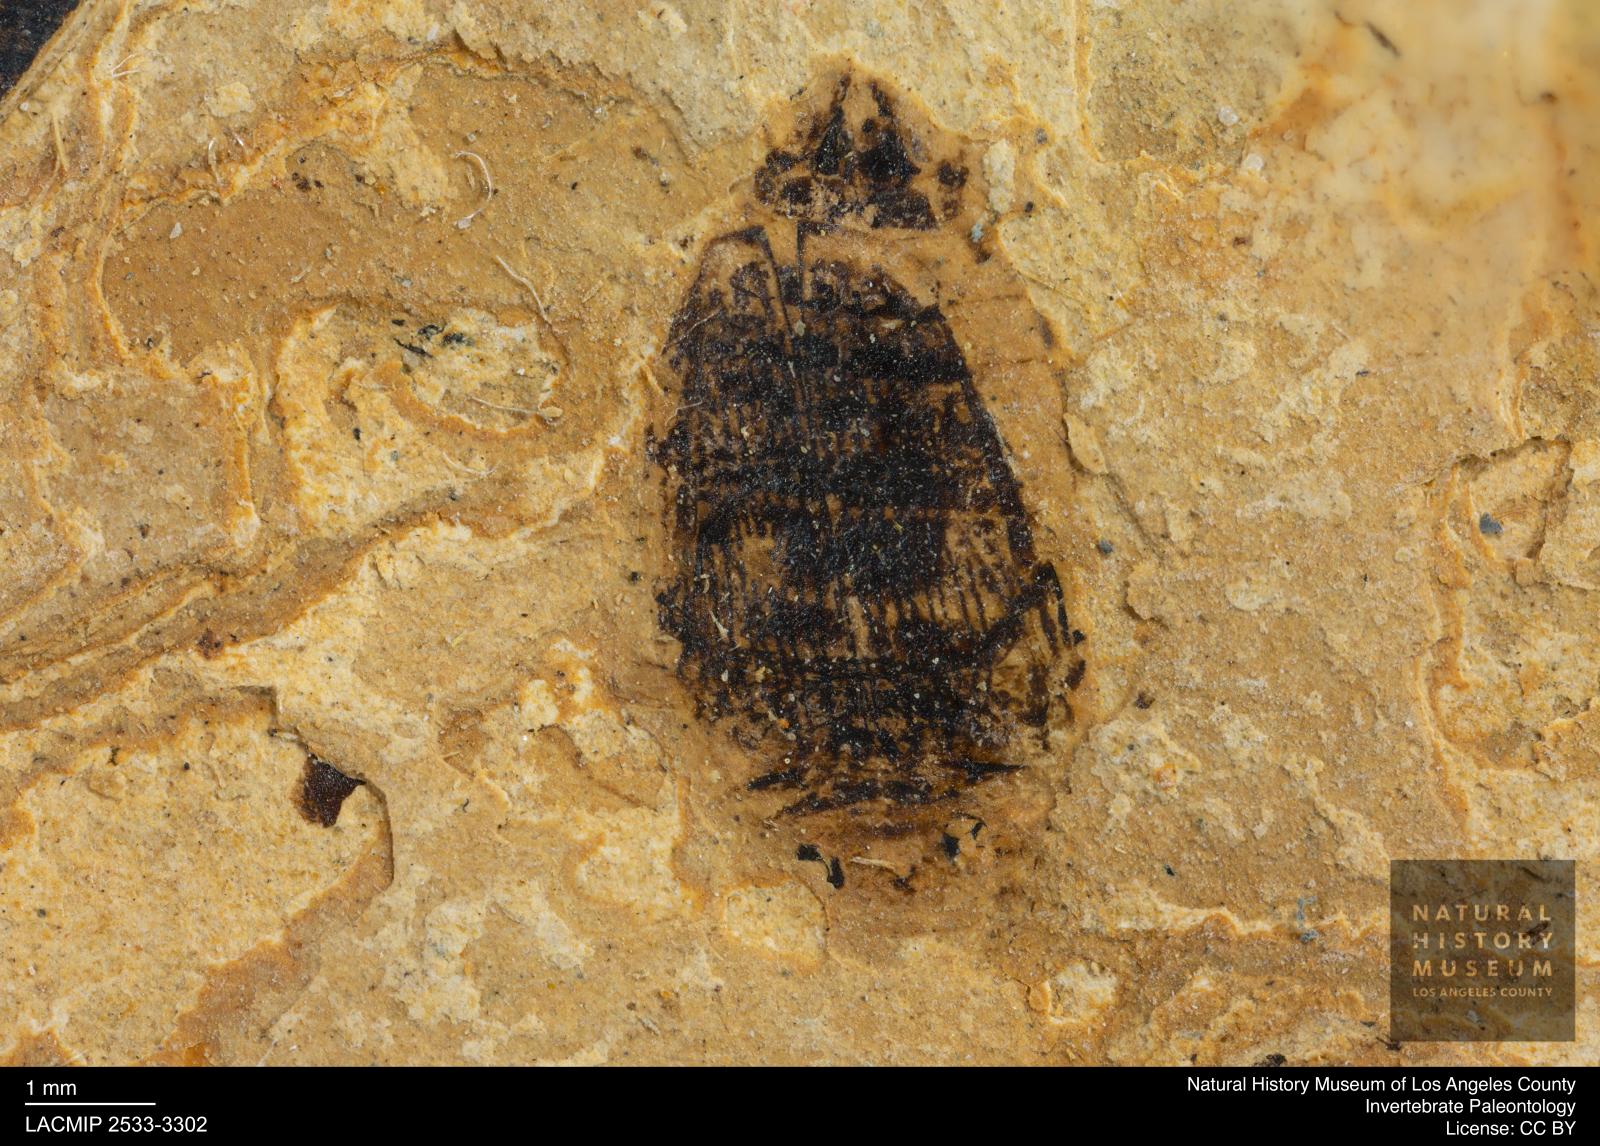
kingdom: Animalia
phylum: Arthropoda
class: Insecta
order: Coleoptera
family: Dytiscidae
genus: Laccophilus
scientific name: Laccophilus Palaeogyrinus strigatus
